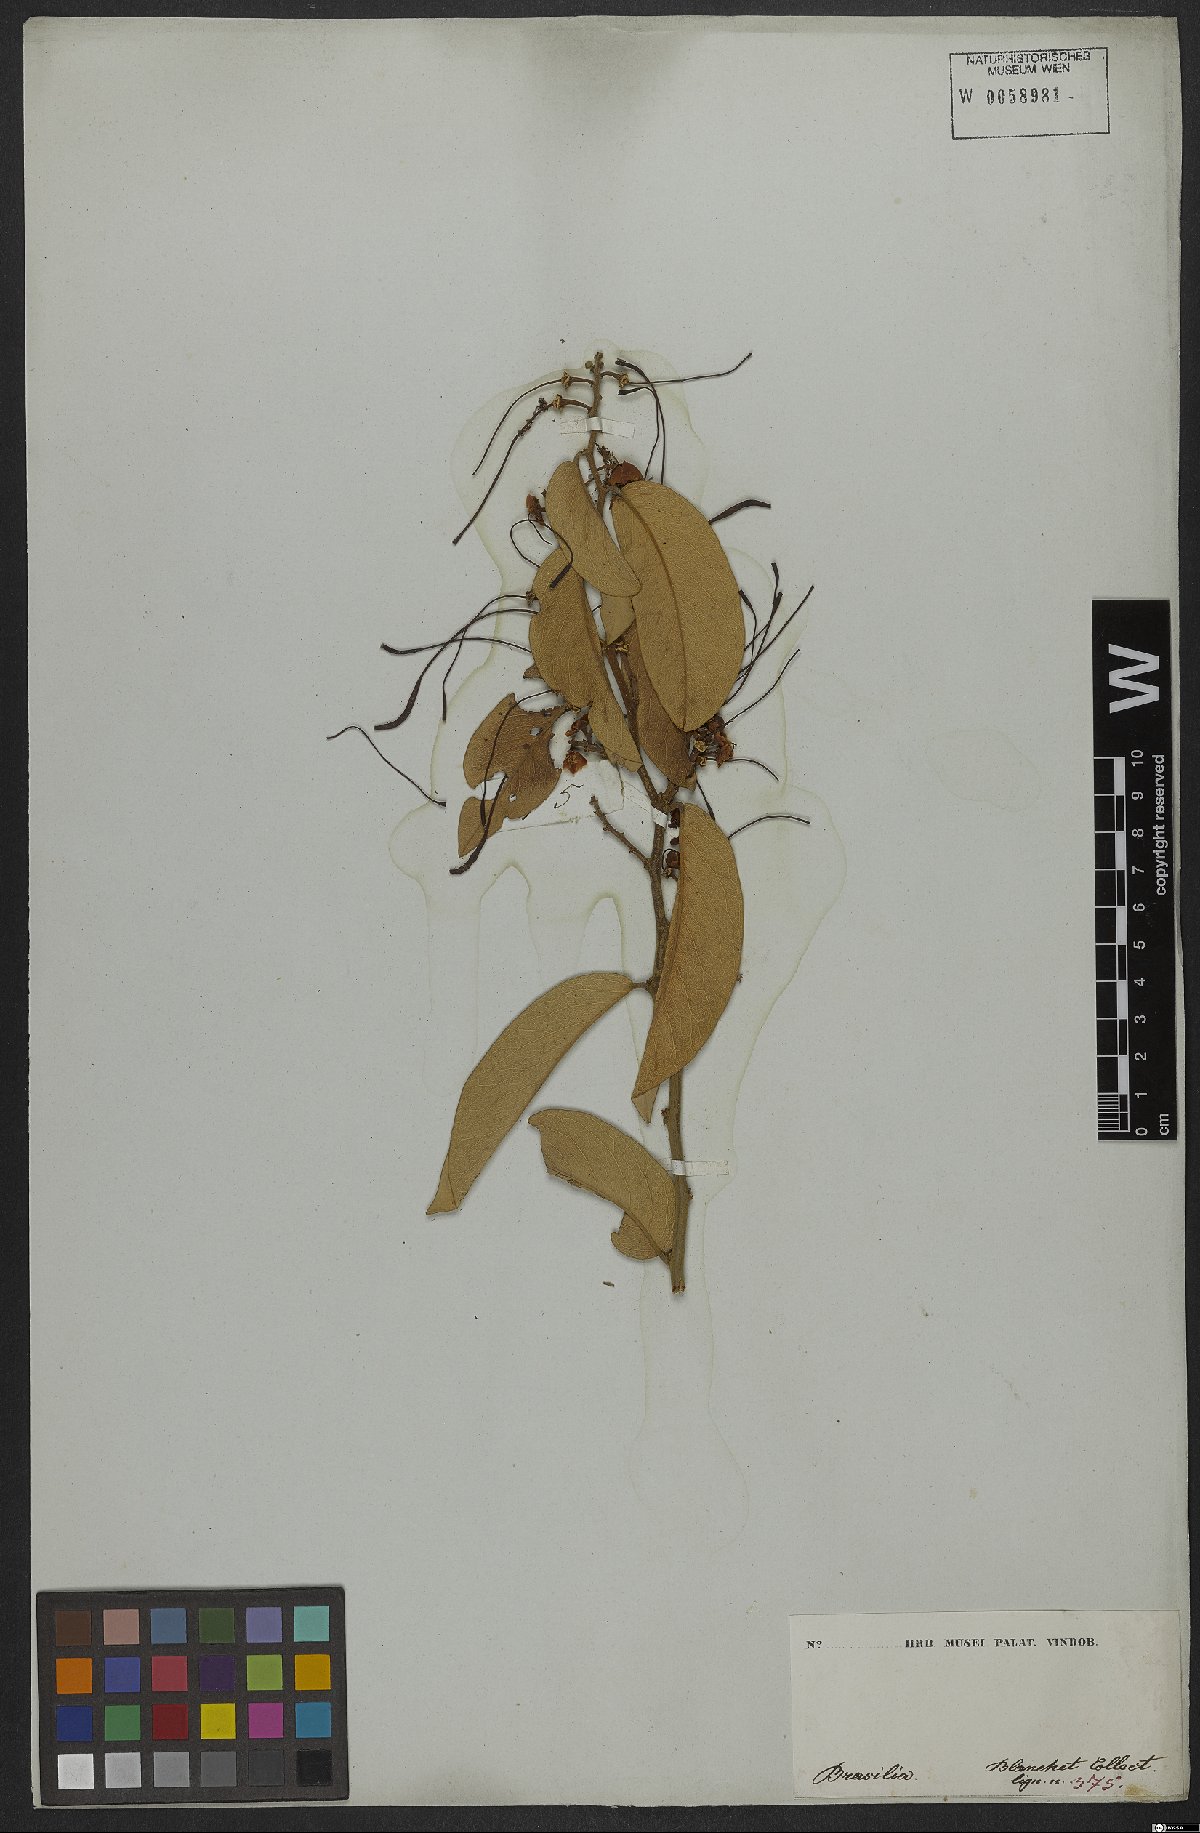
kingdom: Plantae
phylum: Tracheophyta
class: Magnoliopsida
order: Brassicales
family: Capparaceae
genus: Capparis
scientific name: Capparis
